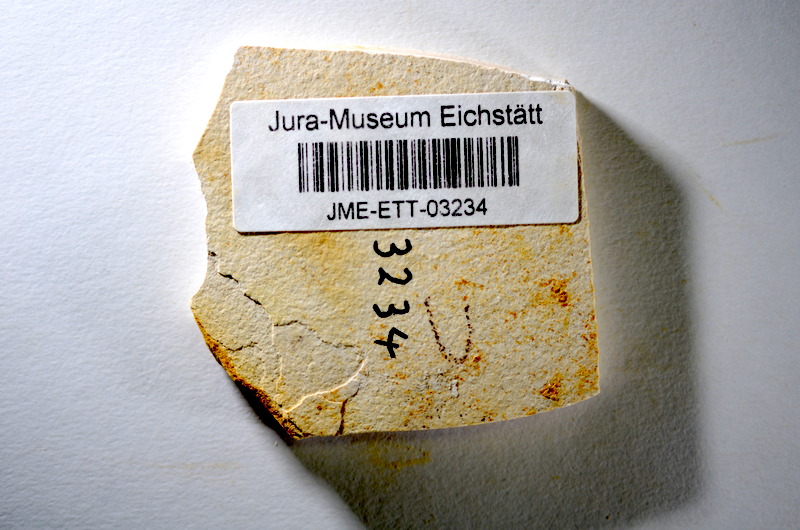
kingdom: Animalia
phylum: Chordata
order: Salmoniformes
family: Orthogonikleithridae
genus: Orthogonikleithrus
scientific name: Orthogonikleithrus hoelli
